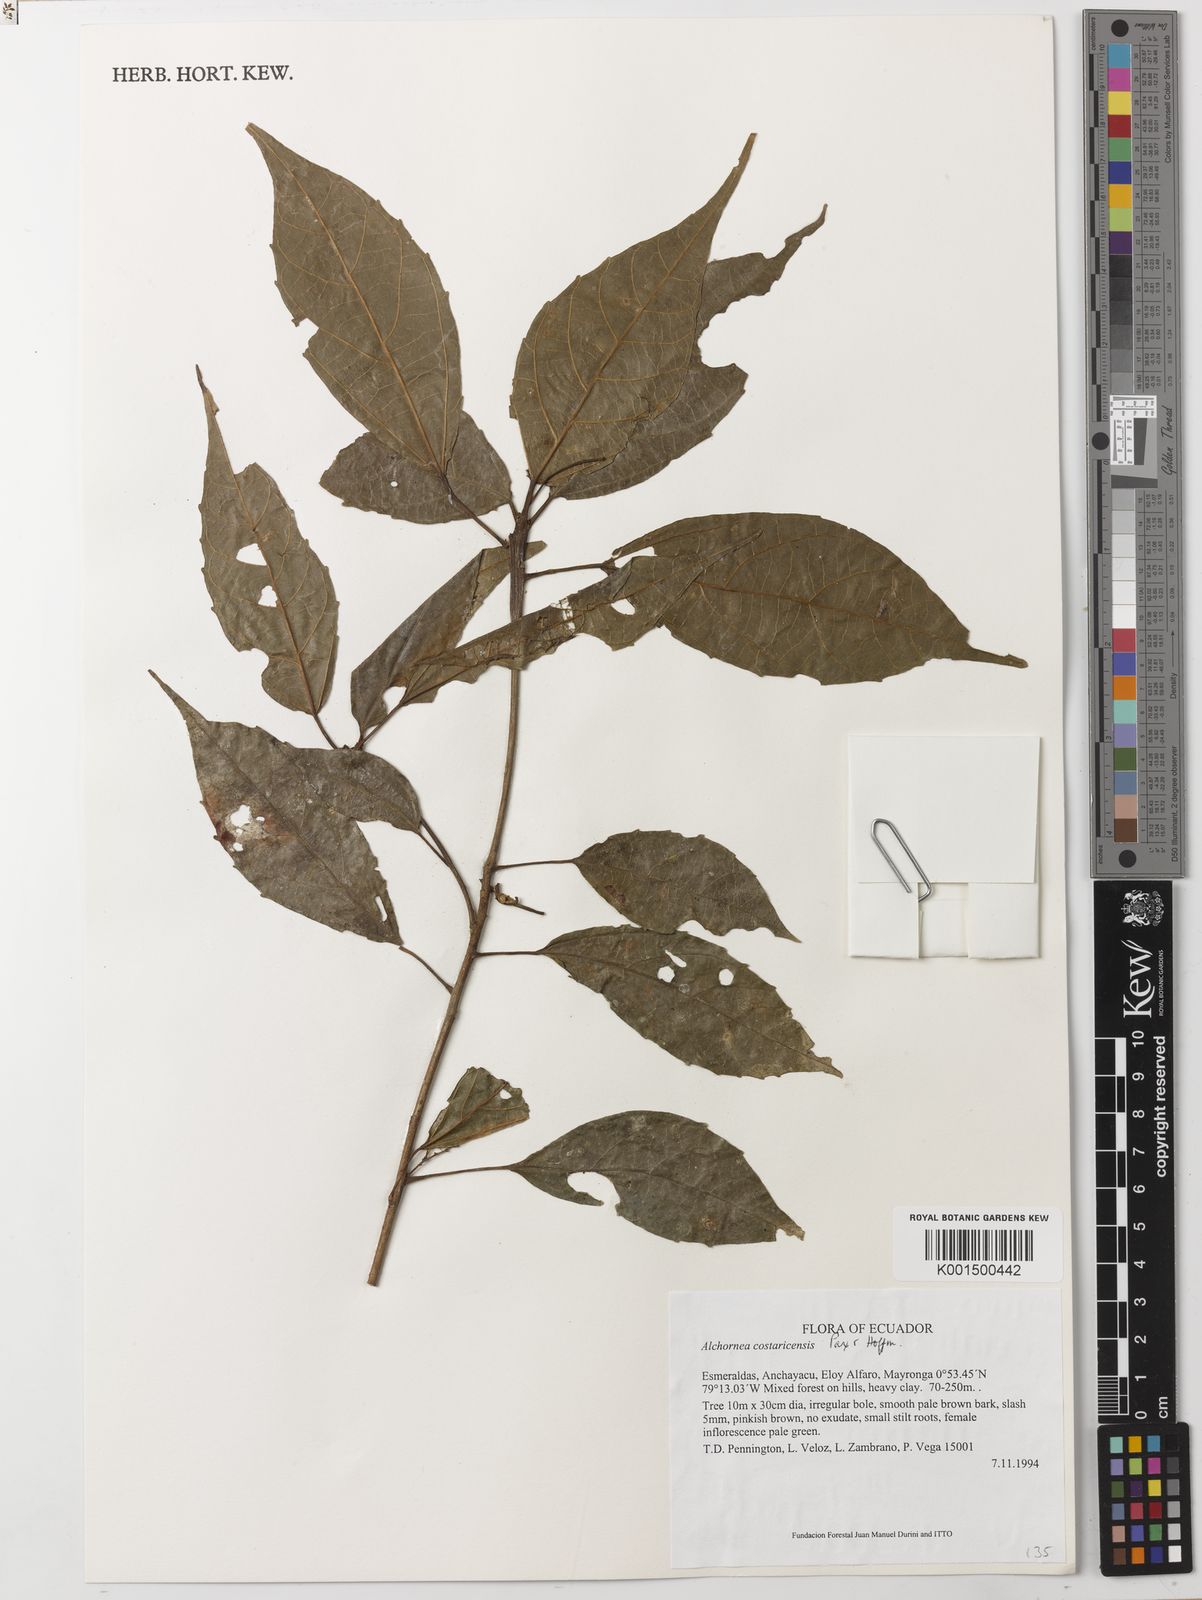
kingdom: Plantae
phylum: Tracheophyta
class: Magnoliopsida
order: Malpighiales
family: Euphorbiaceae
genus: Alchornea
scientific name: Alchornea costaricensis
